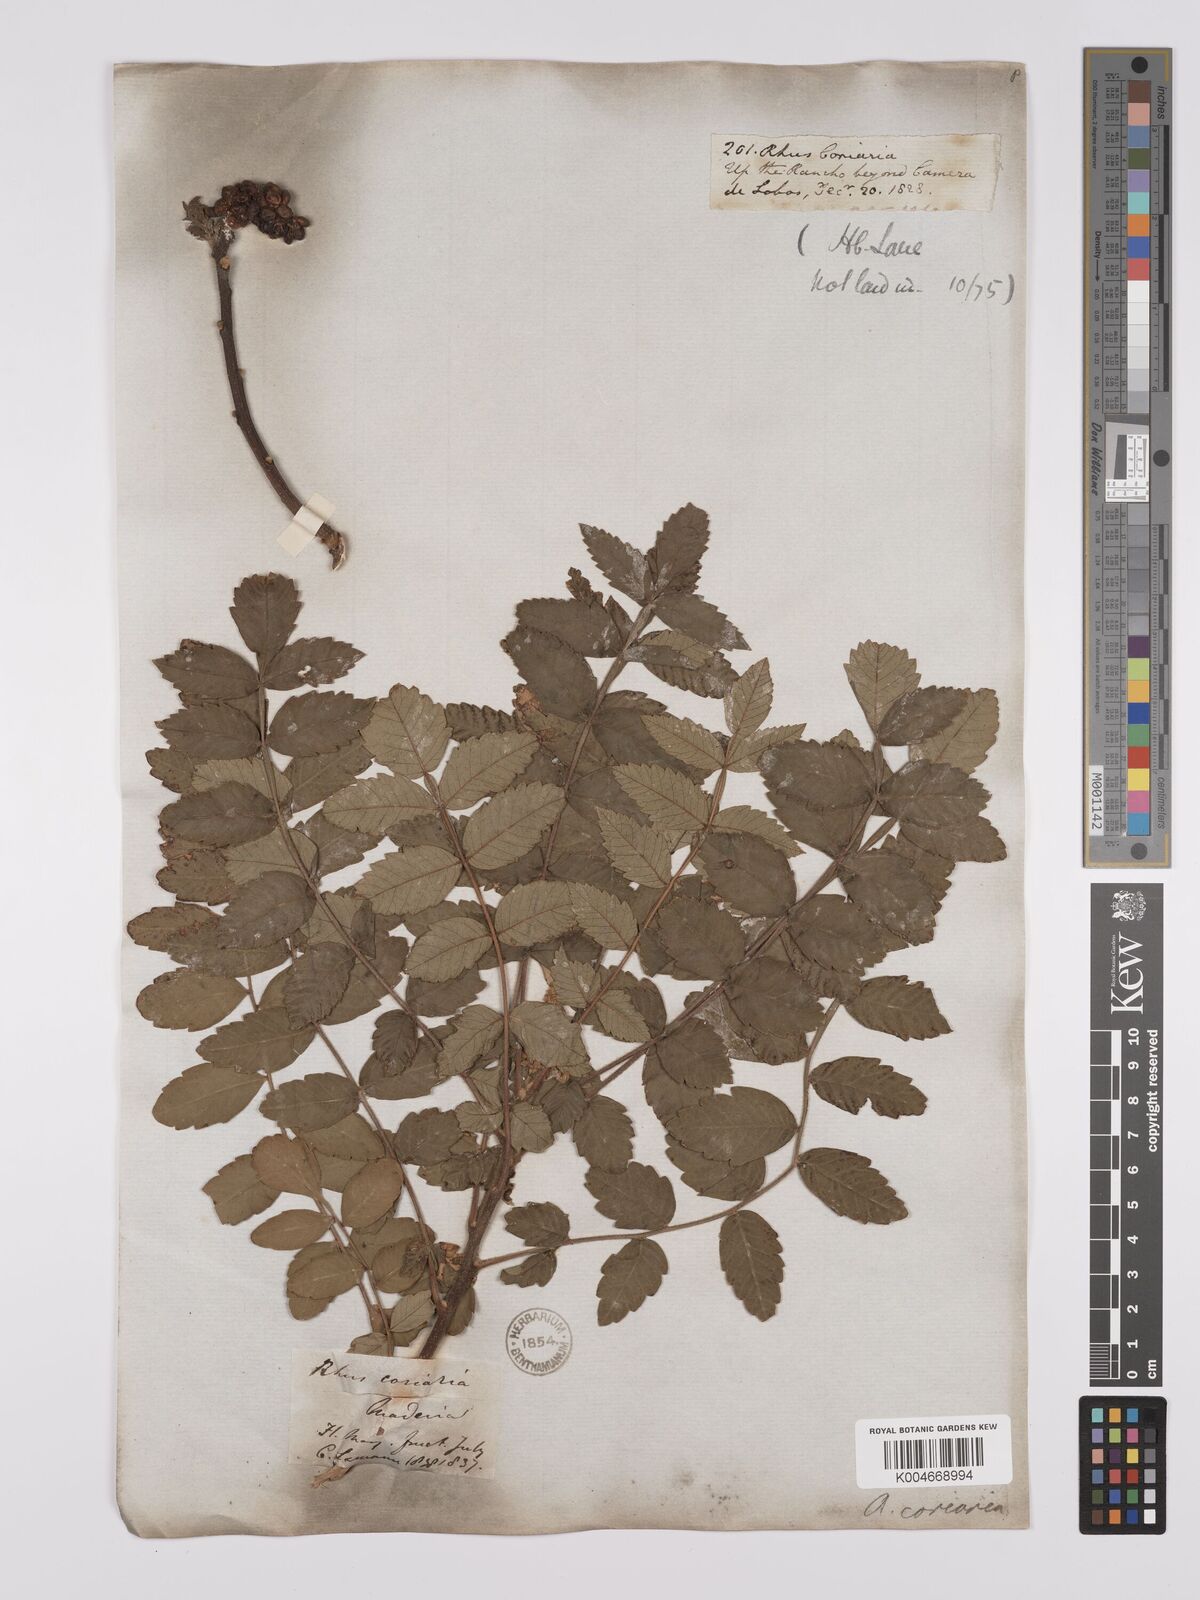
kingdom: Plantae
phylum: Tracheophyta
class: Magnoliopsida
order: Sapindales
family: Anacardiaceae
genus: Rhus
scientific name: Rhus coriaria
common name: Tanner's sumach
